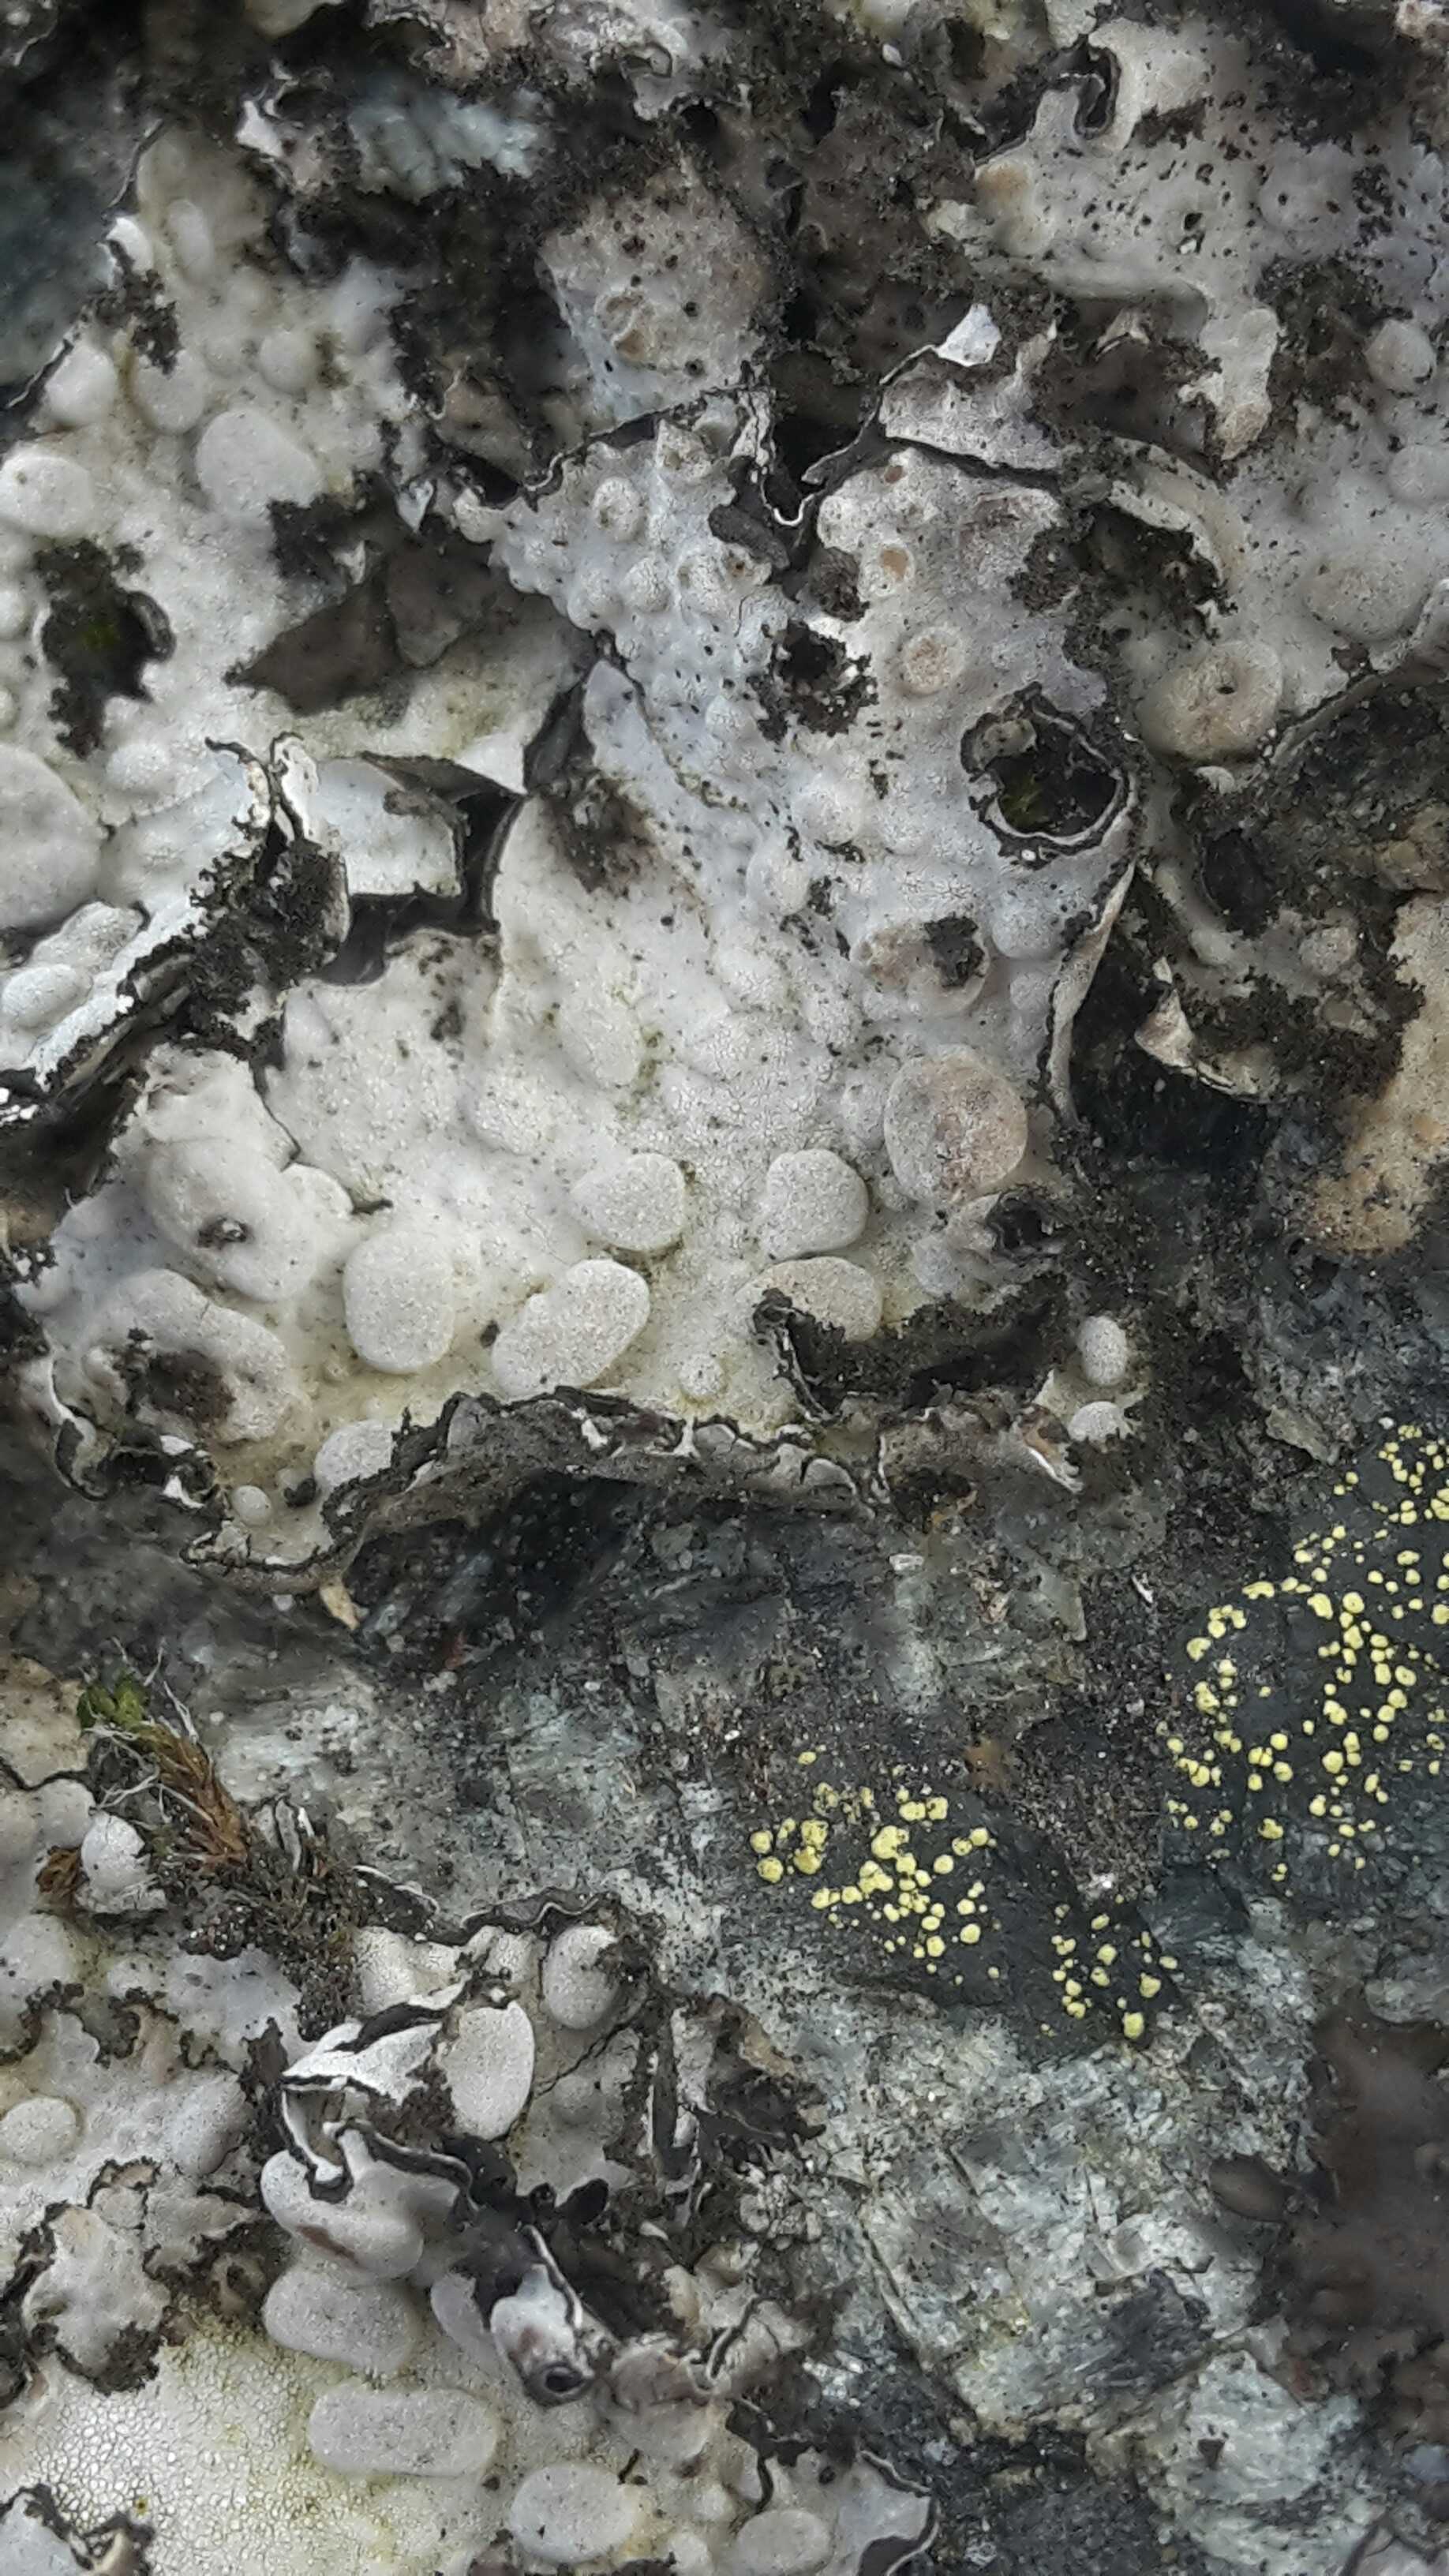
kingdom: Fungi
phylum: Ascomycota
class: Lecanoromycetes
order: Umbilicariales
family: Umbilicariaceae
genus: Lasallia
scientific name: Lasallia pustulata
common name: buklet navlelav
